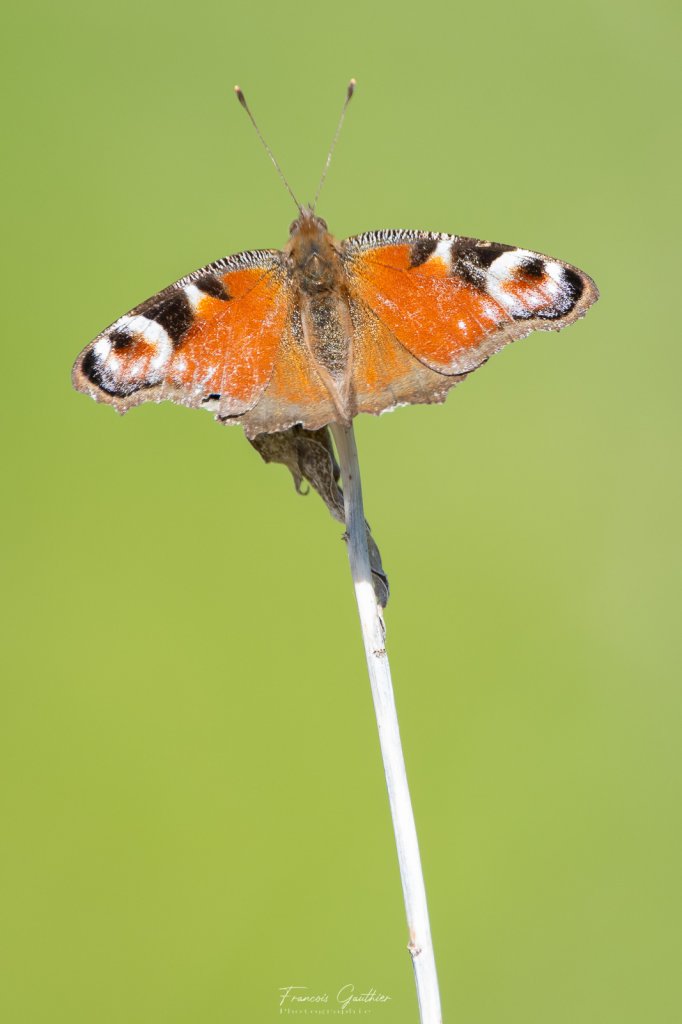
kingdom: Animalia
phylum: Arthropoda
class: Insecta
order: Lepidoptera
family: Nymphalidae
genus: Aglais
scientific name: Aglais io
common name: European Peacock
